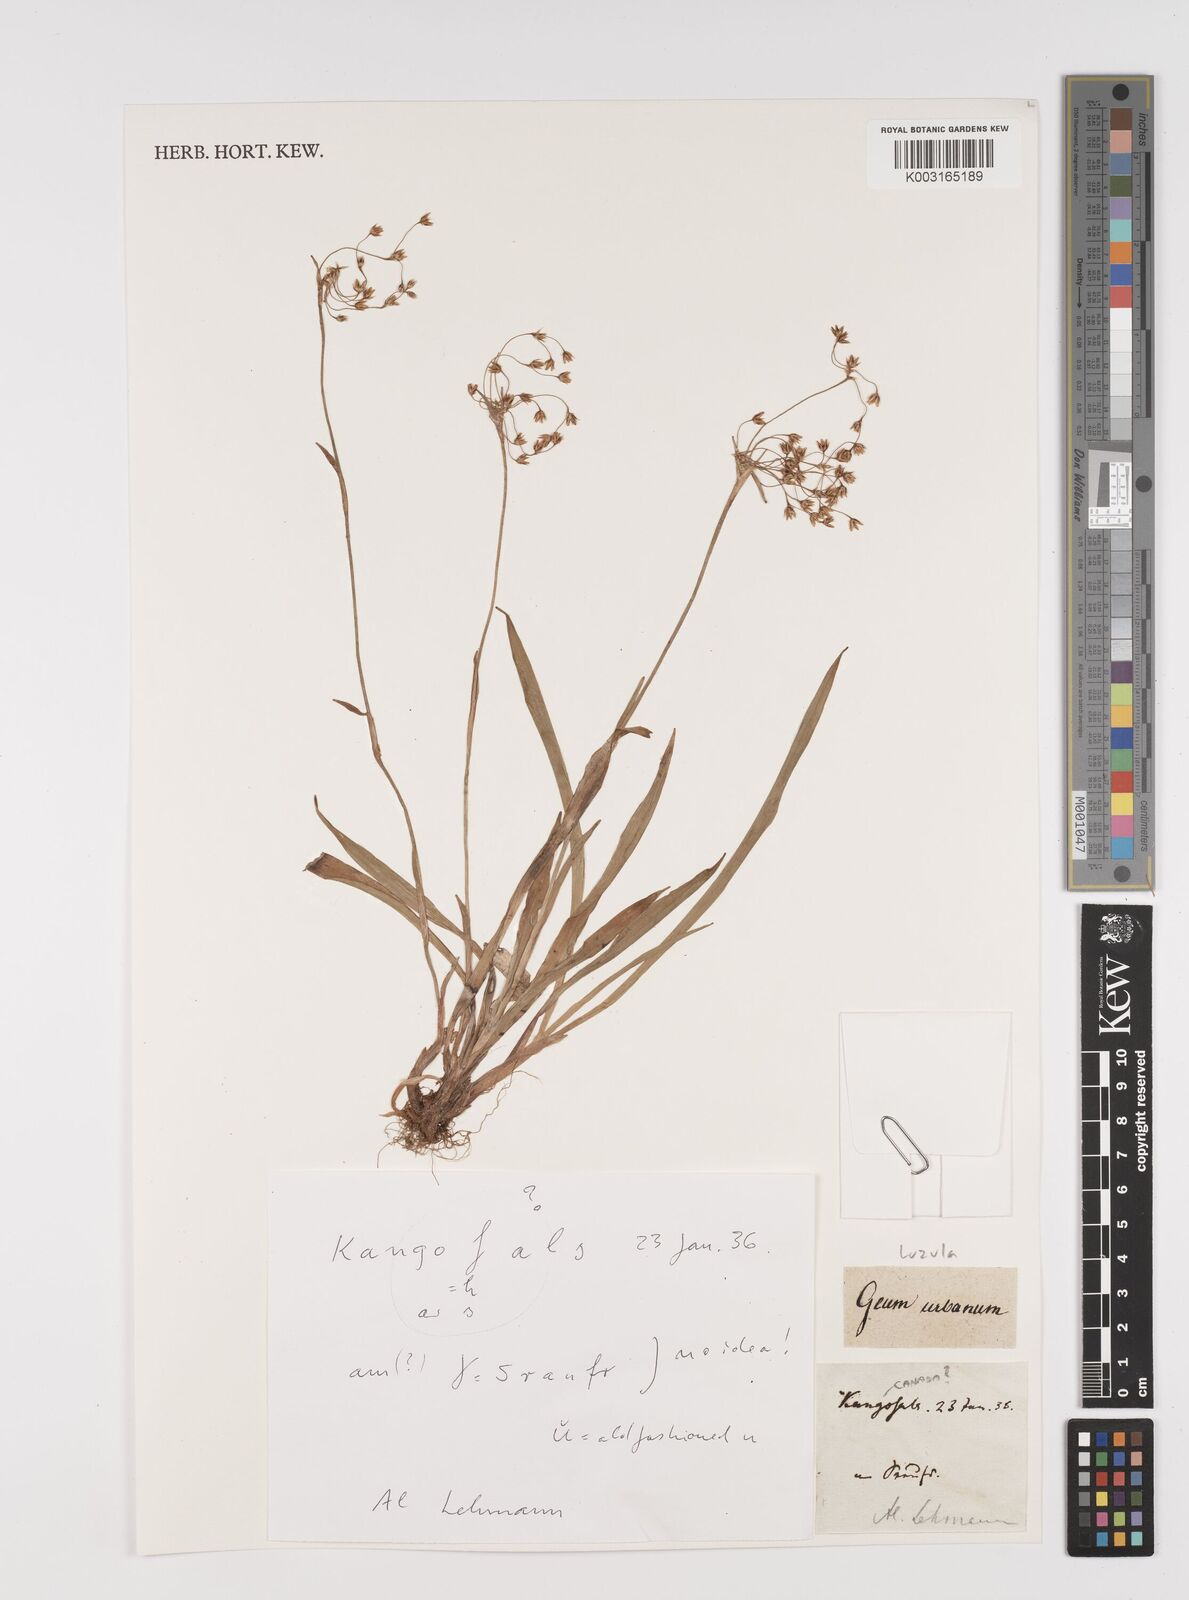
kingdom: Plantae
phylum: Tracheophyta
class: Liliopsida
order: Poales
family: Juncaceae
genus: Luzula
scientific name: Luzula
